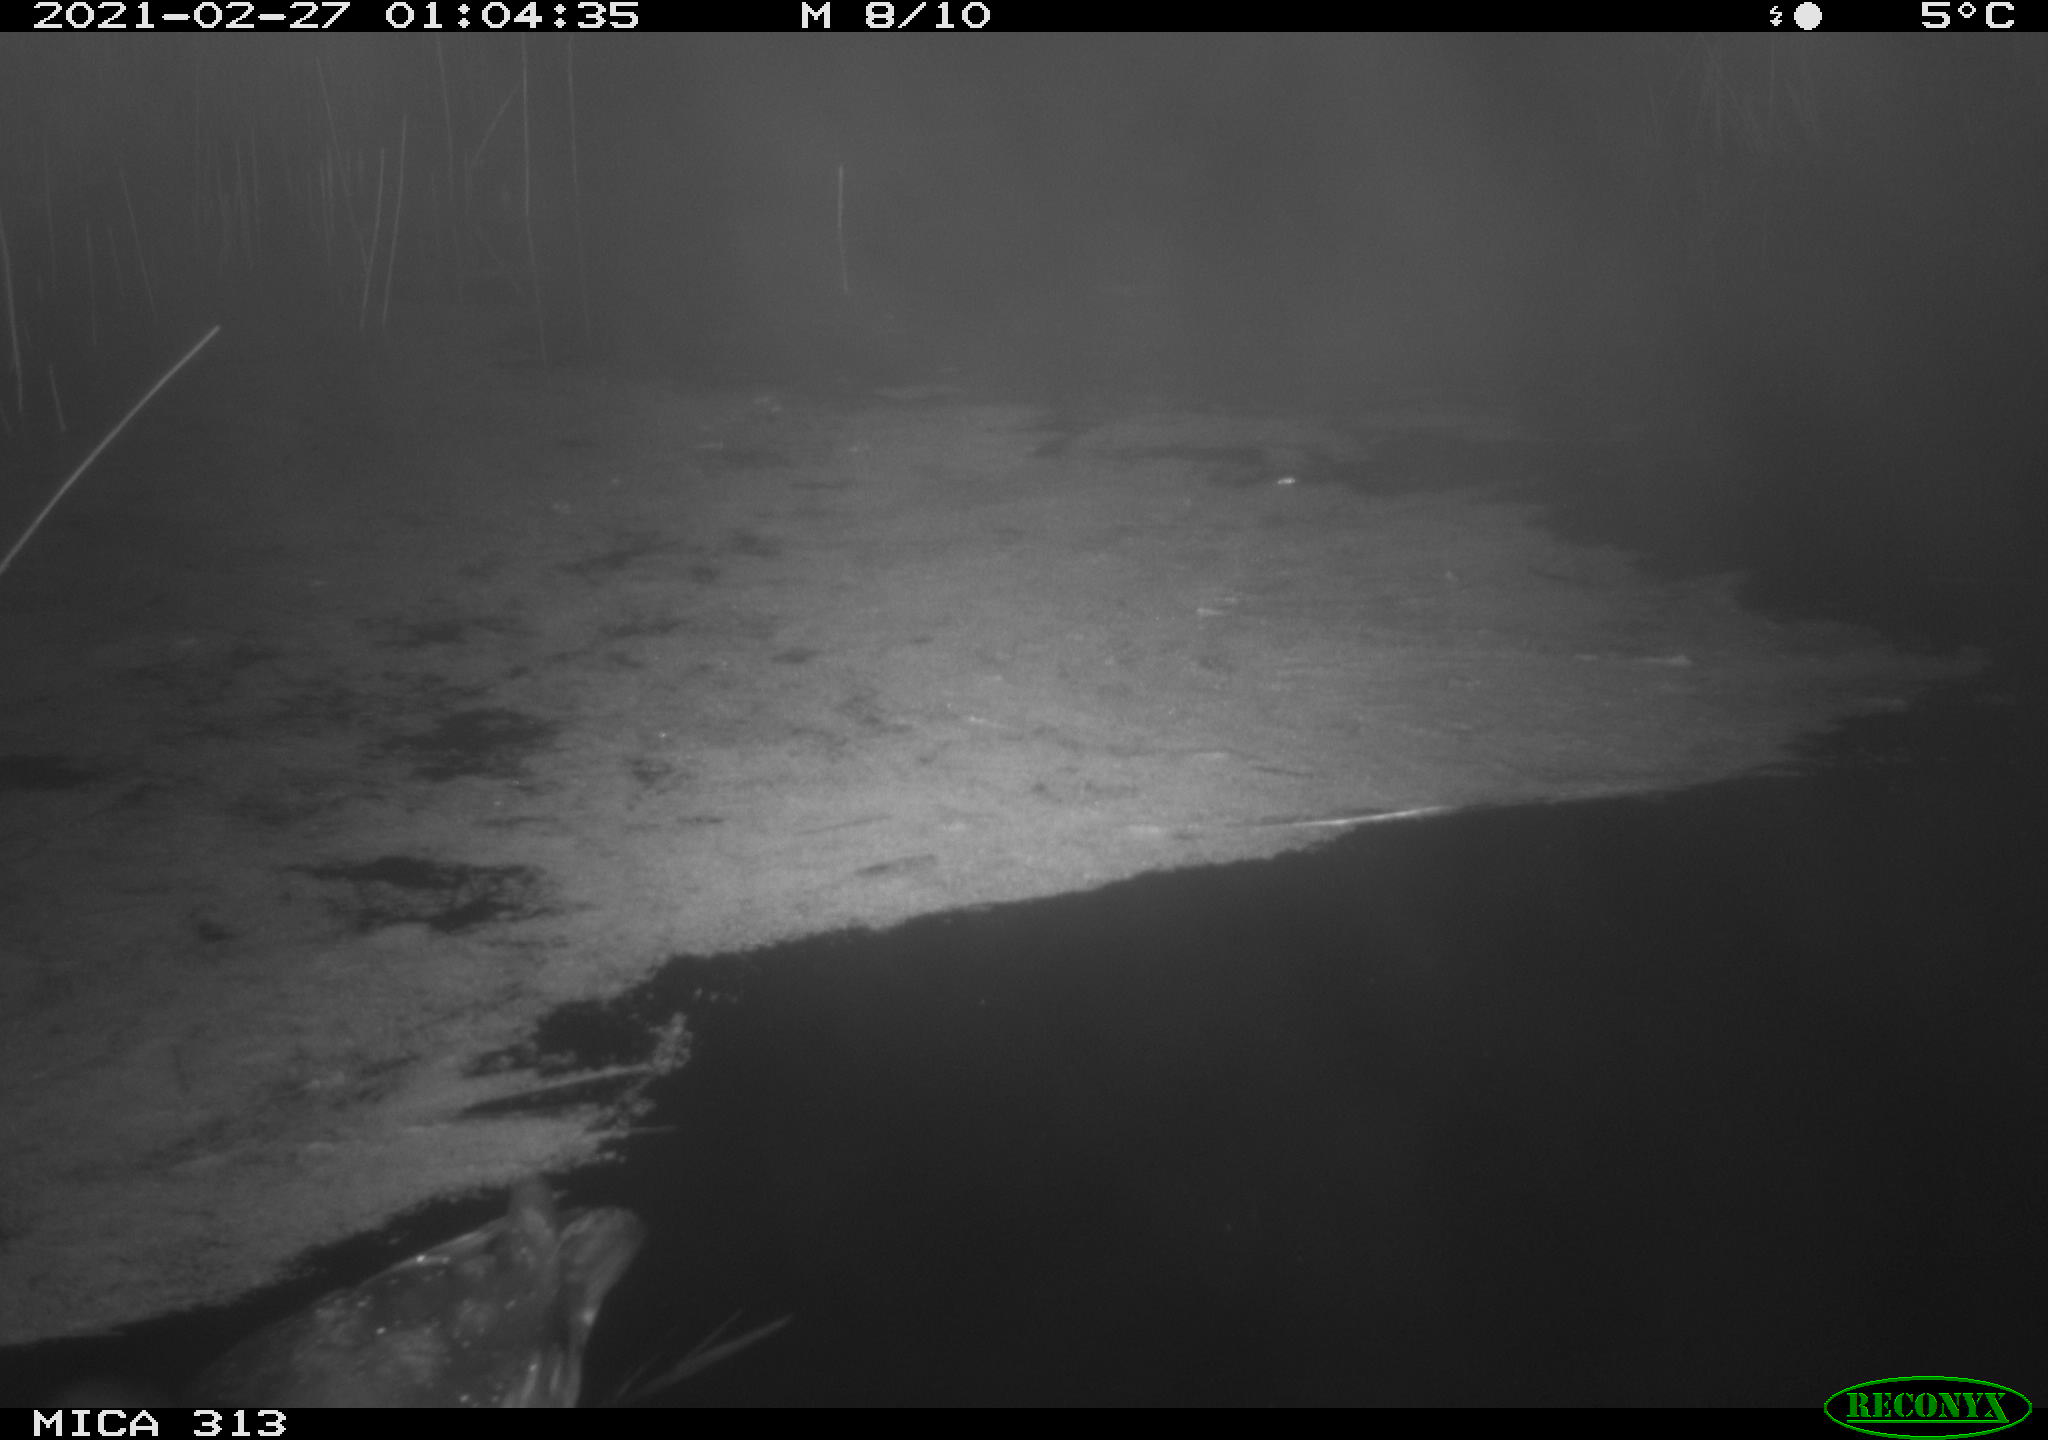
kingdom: Animalia
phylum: Chordata
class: Aves
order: Gruiformes
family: Rallidae
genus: Gallinula
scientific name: Gallinula chloropus
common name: Common moorhen
